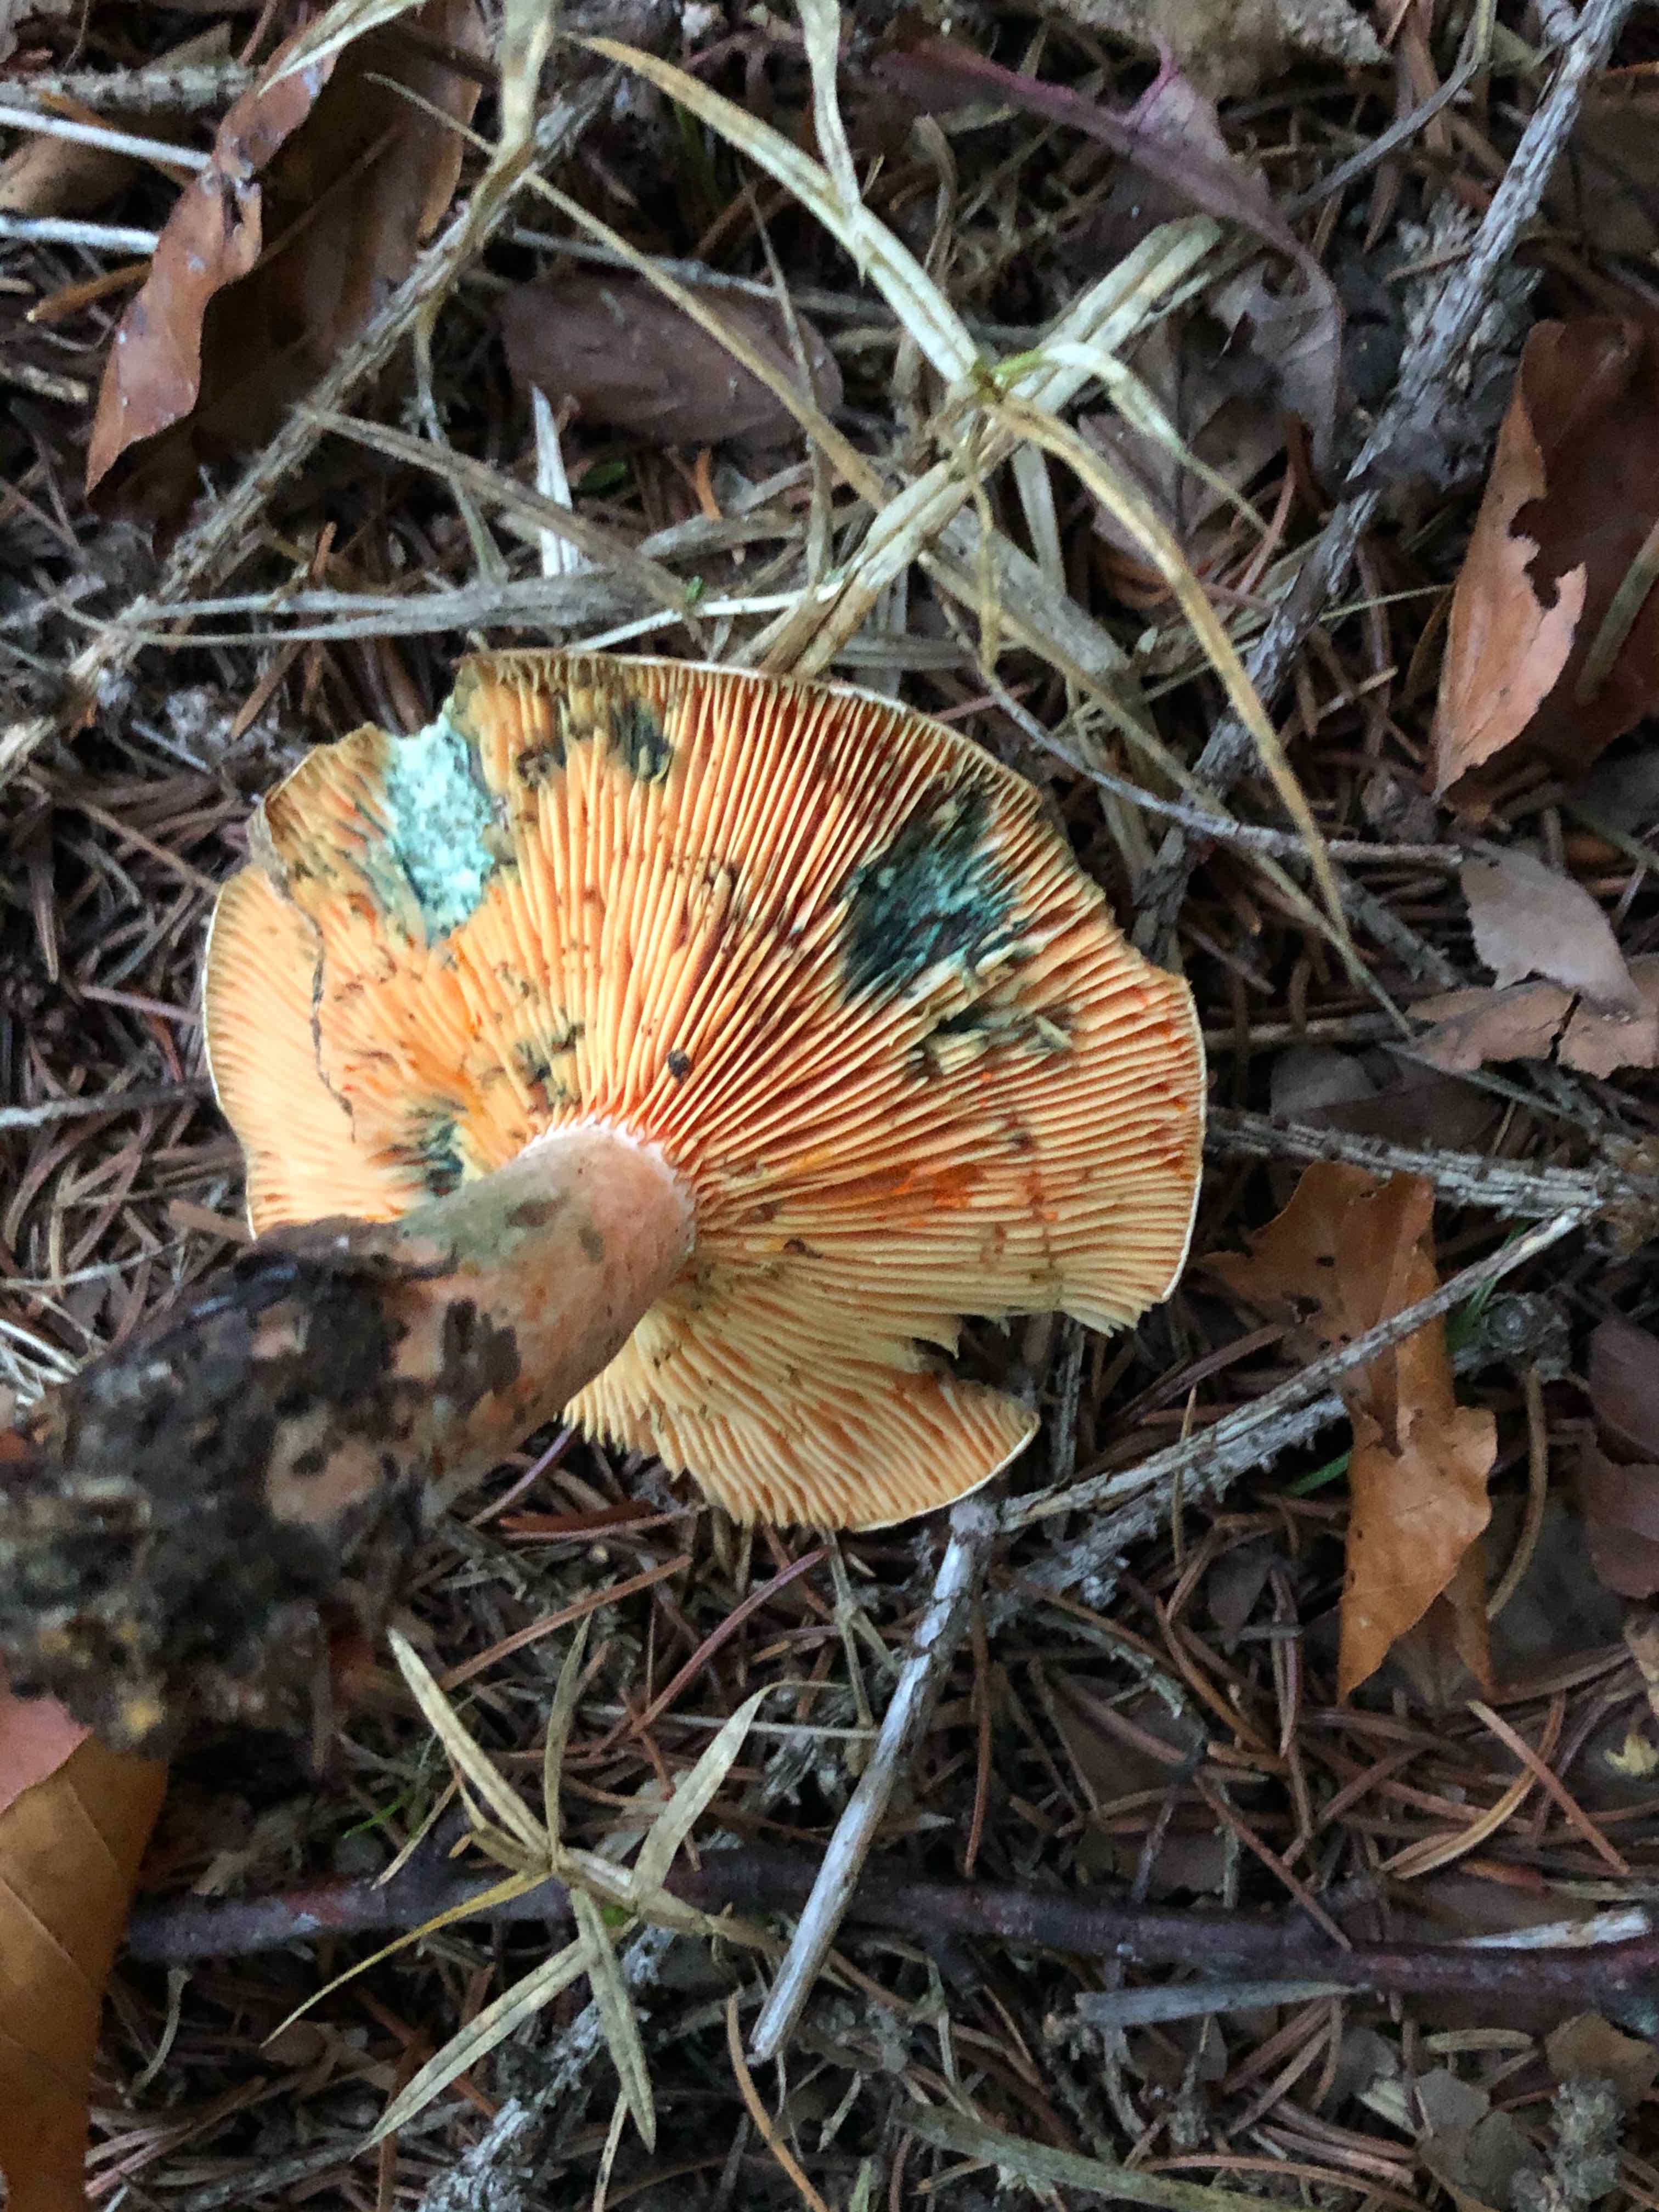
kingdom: Fungi
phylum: Basidiomycota
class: Agaricomycetes
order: Russulales
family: Russulaceae
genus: Lactarius
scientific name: Lactarius deterrimus
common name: gran-mælkehat
